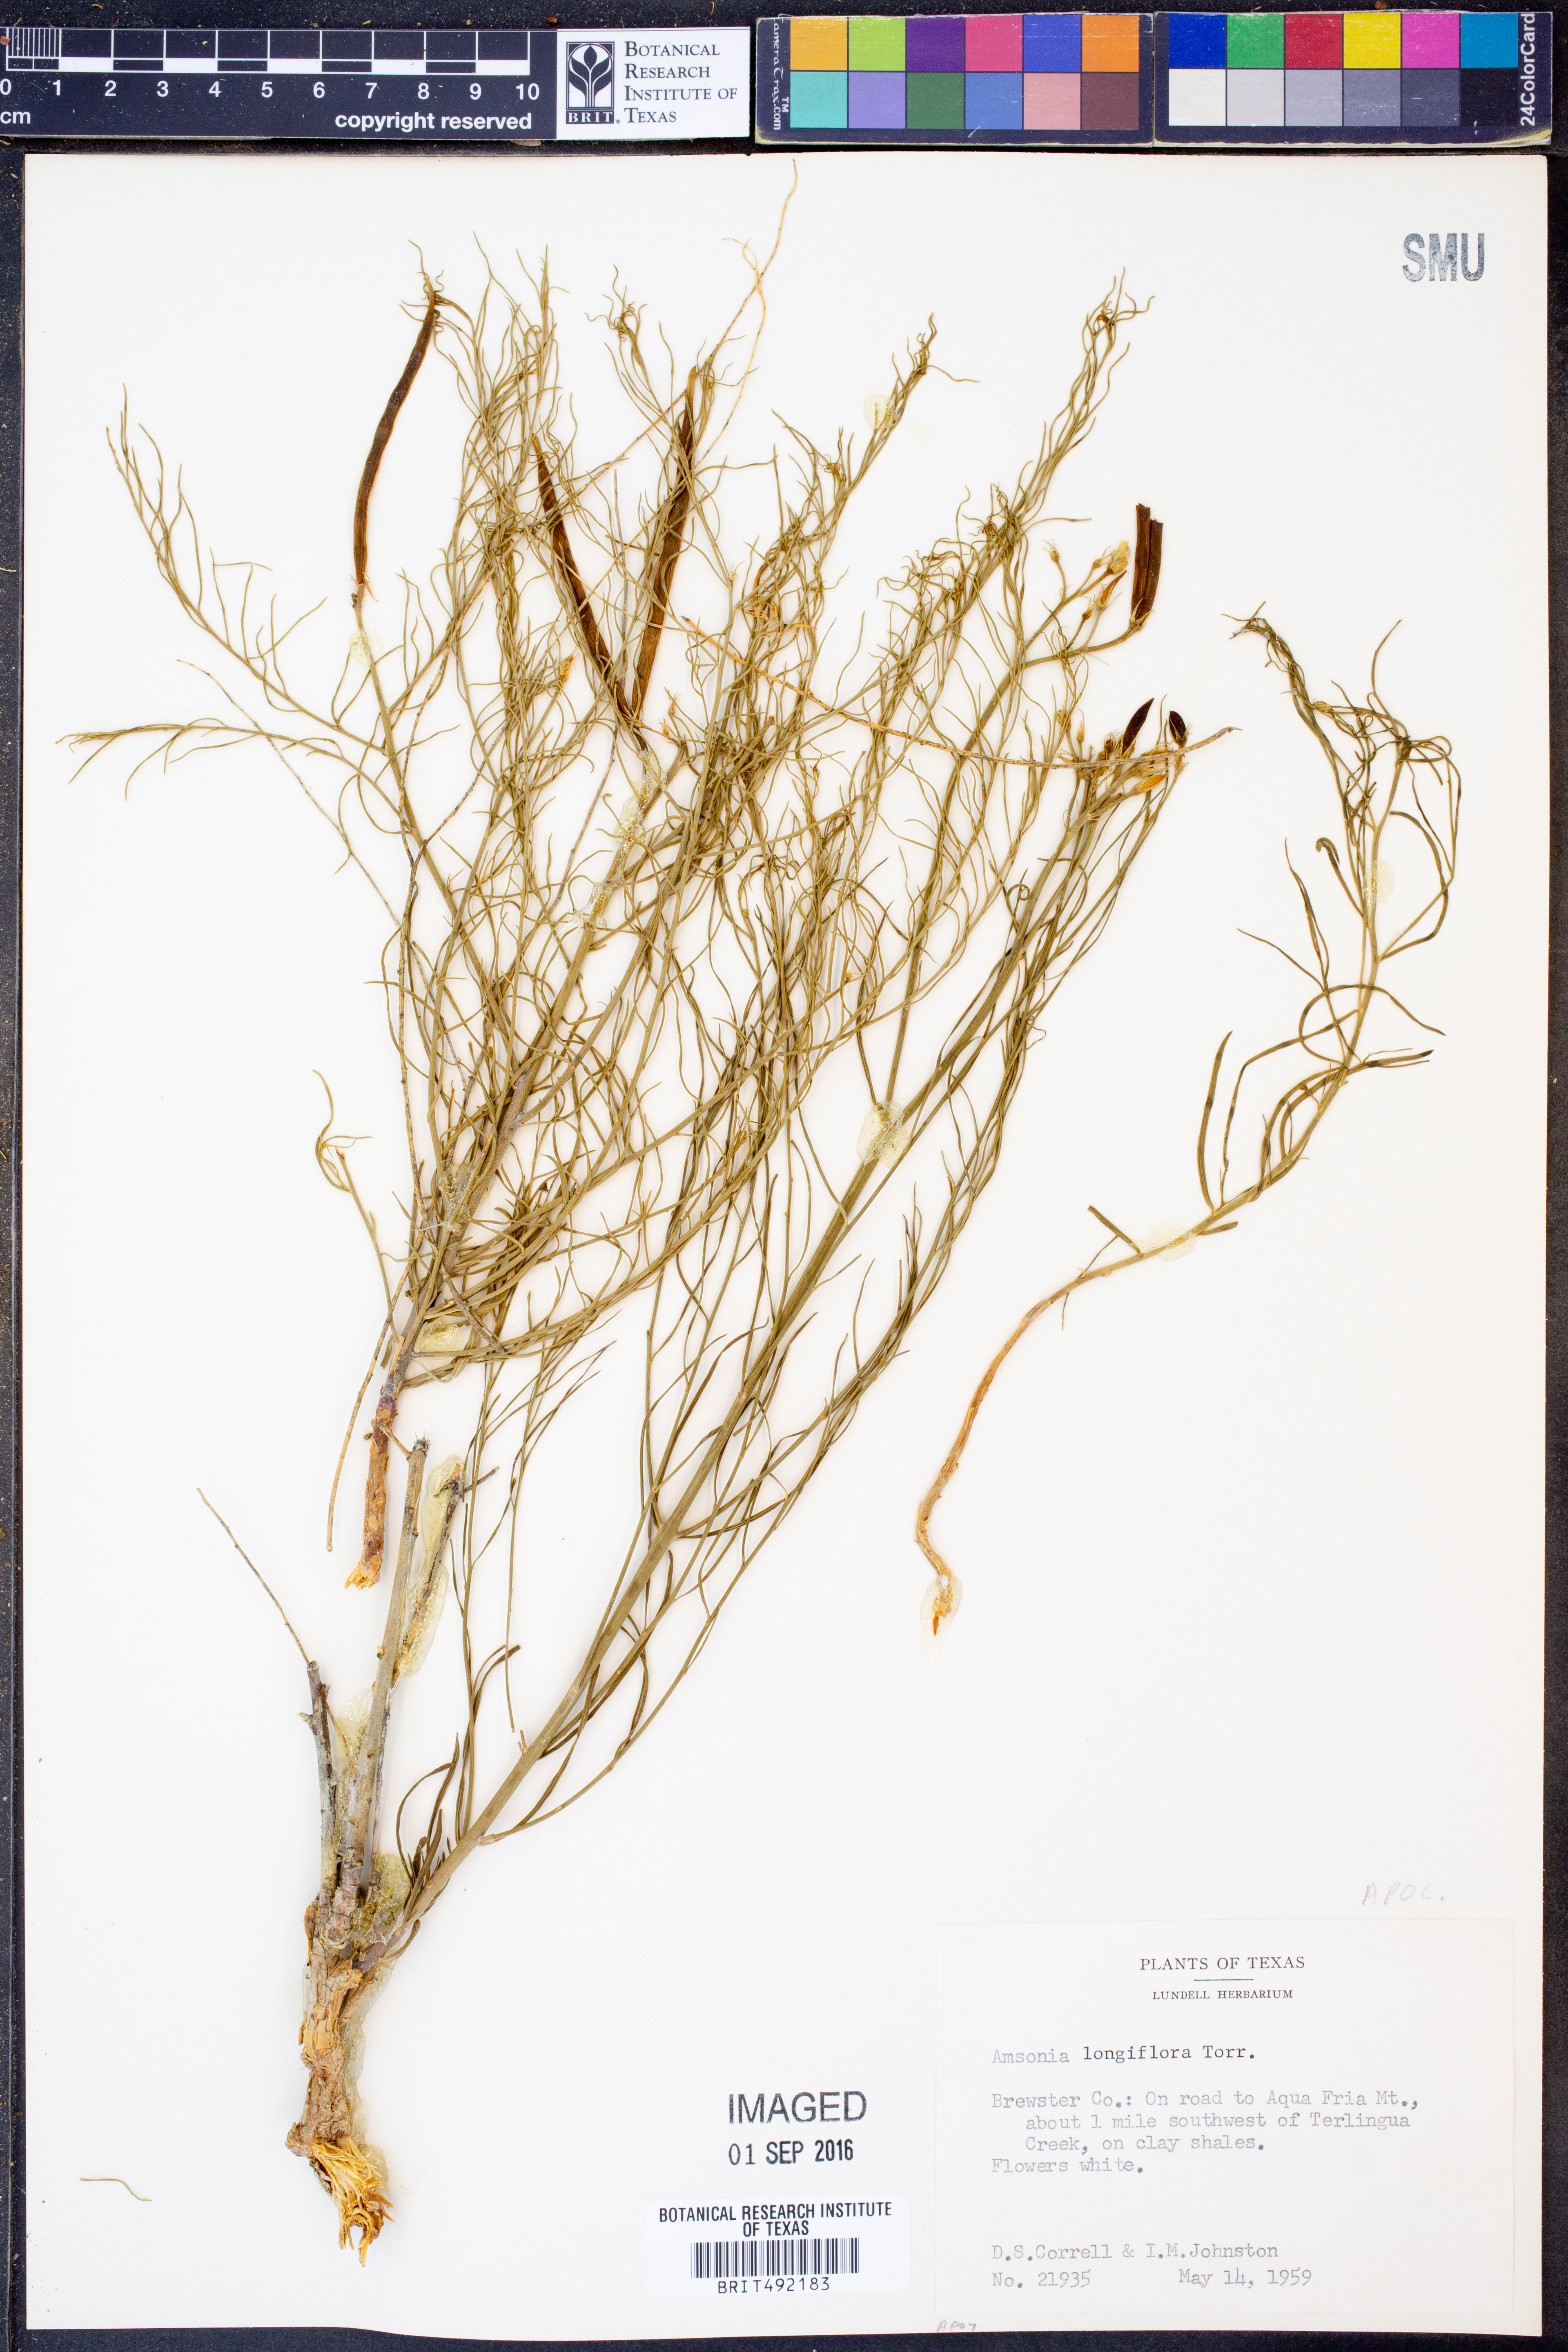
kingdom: Plantae
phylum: Tracheophyta
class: Magnoliopsida
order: Gentianales
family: Apocynaceae
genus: Amsonia
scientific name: Amsonia longiflora
